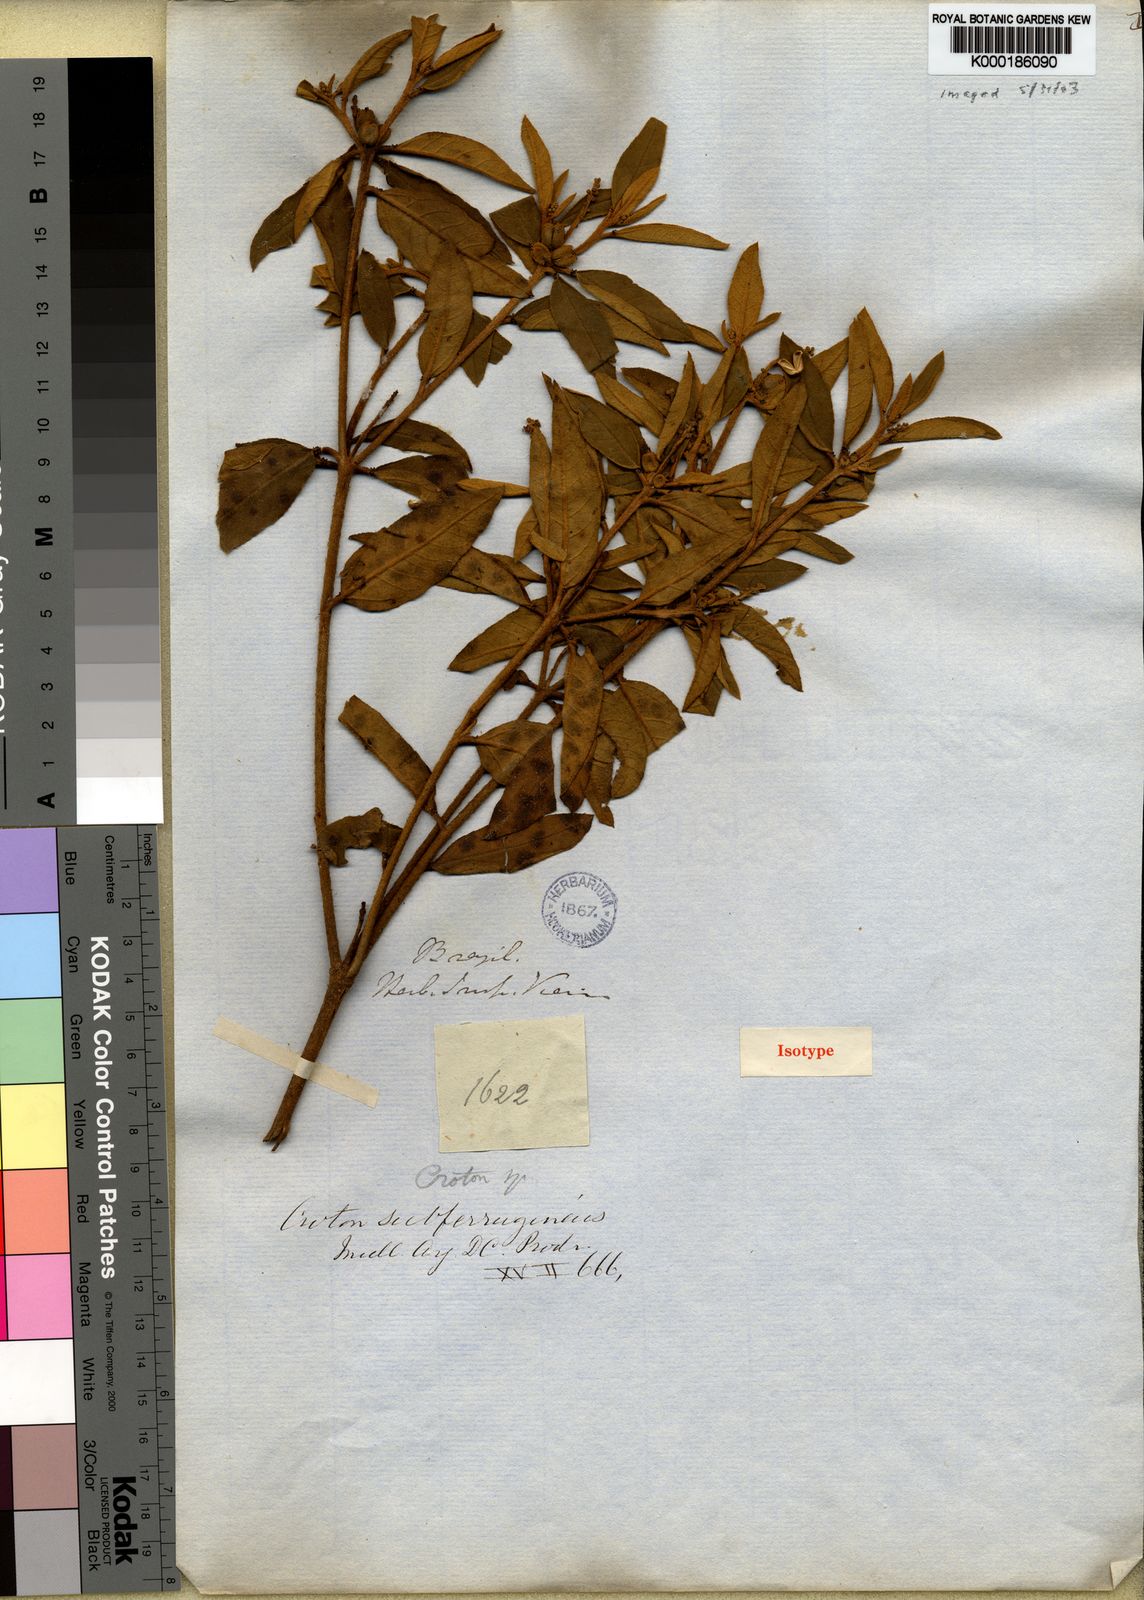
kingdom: Plantae
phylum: Tracheophyta
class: Magnoliopsida
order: Malpighiales
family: Euphorbiaceae
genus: Croton
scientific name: Croton
